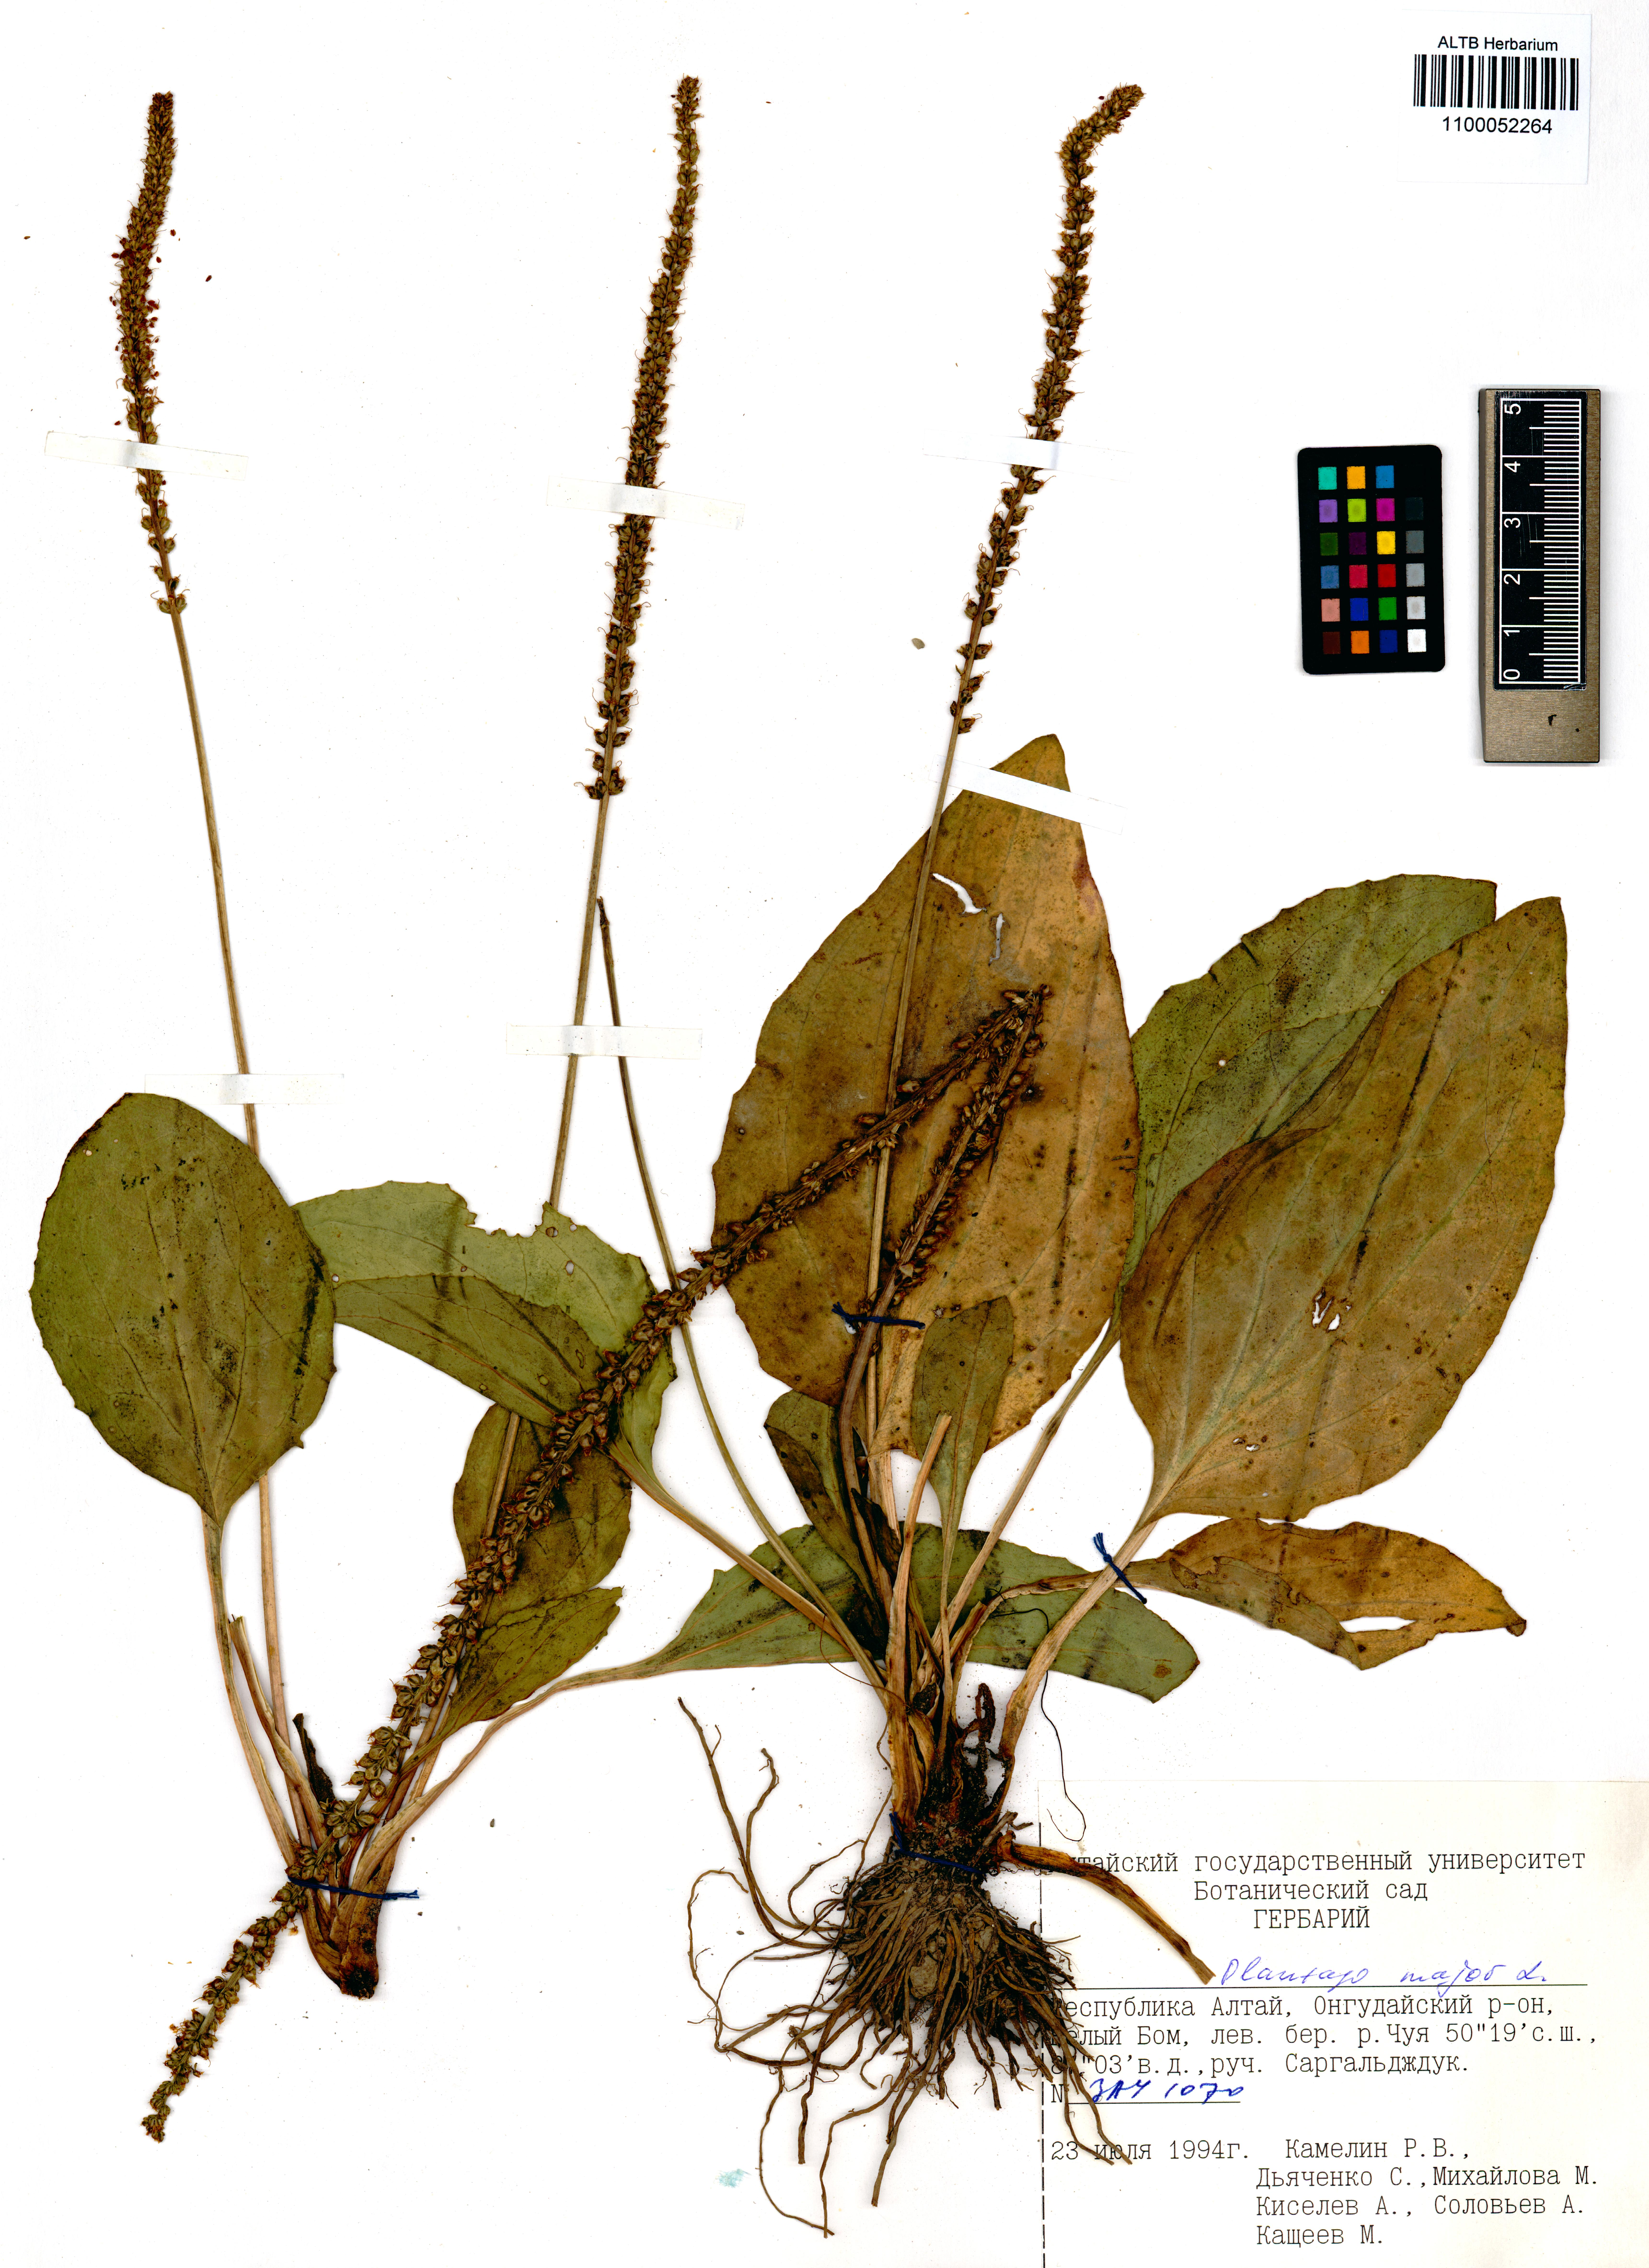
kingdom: Plantae
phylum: Tracheophyta
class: Magnoliopsida
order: Lamiales
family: Plantaginaceae
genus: Plantago
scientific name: Plantago major
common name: Common plantain
